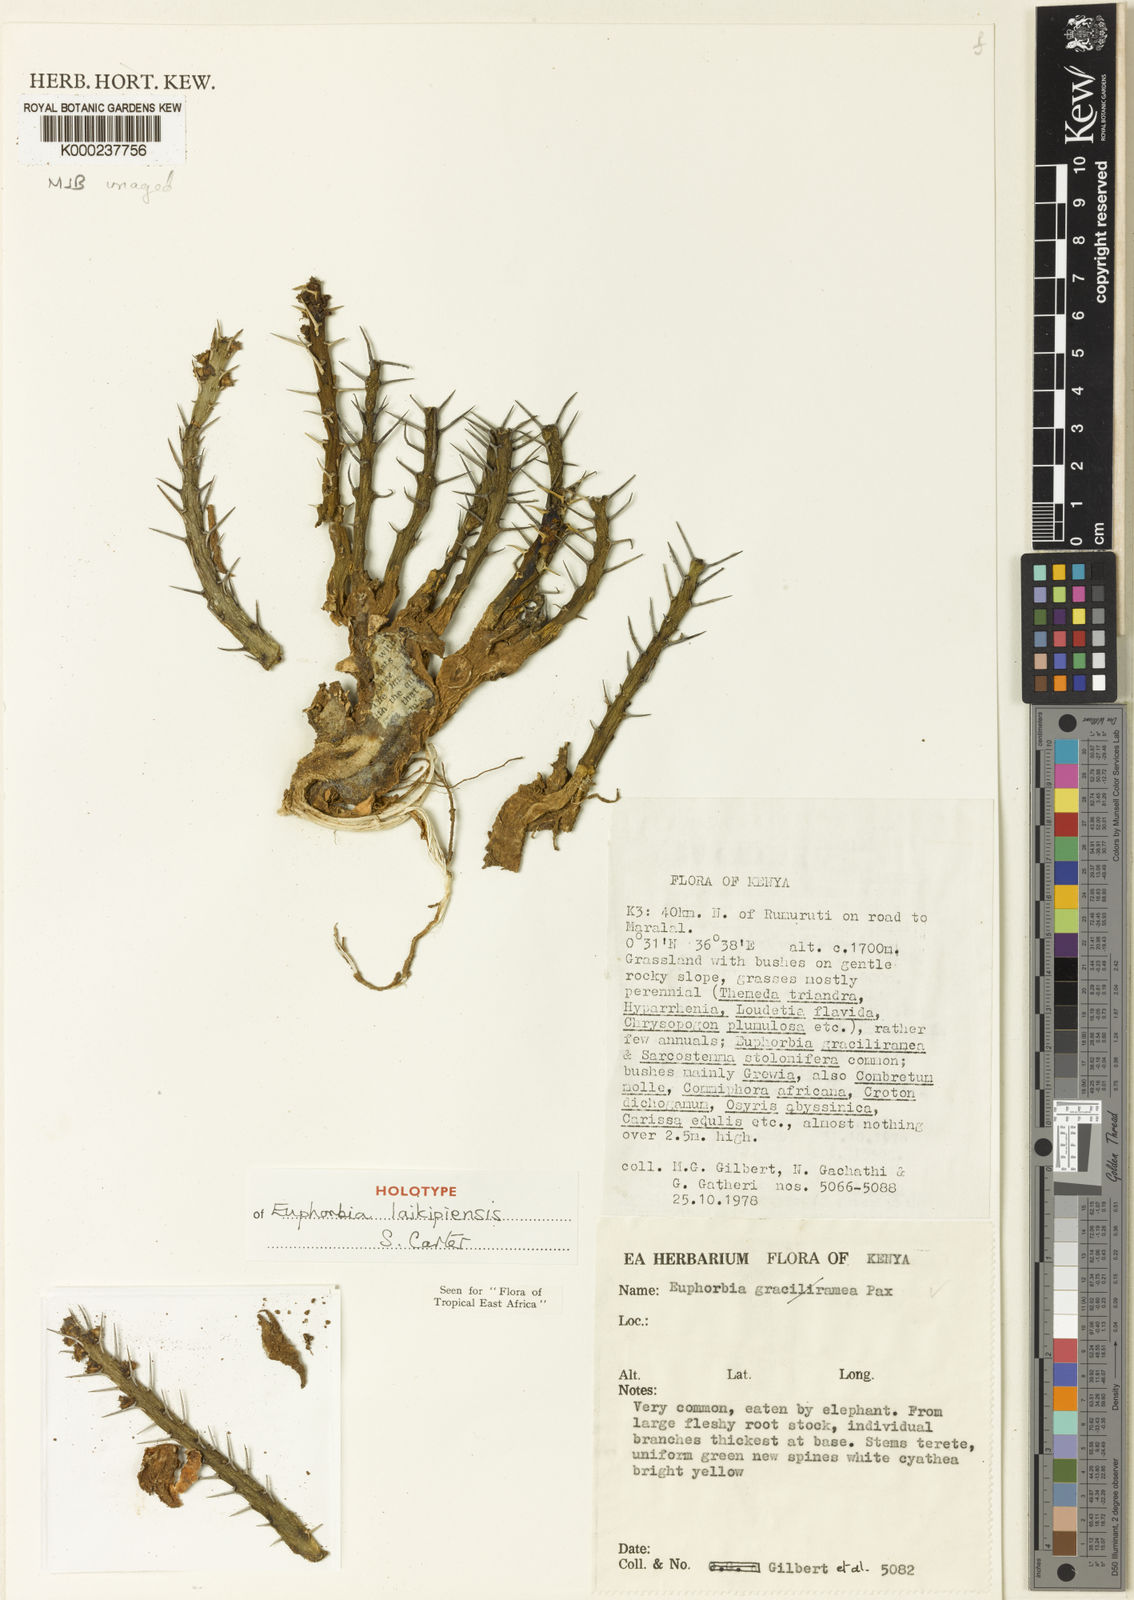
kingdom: Plantae
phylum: Tracheophyta
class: Magnoliopsida
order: Malpighiales
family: Euphorbiaceae
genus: Euphorbia
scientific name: Euphorbia laikipiensis
